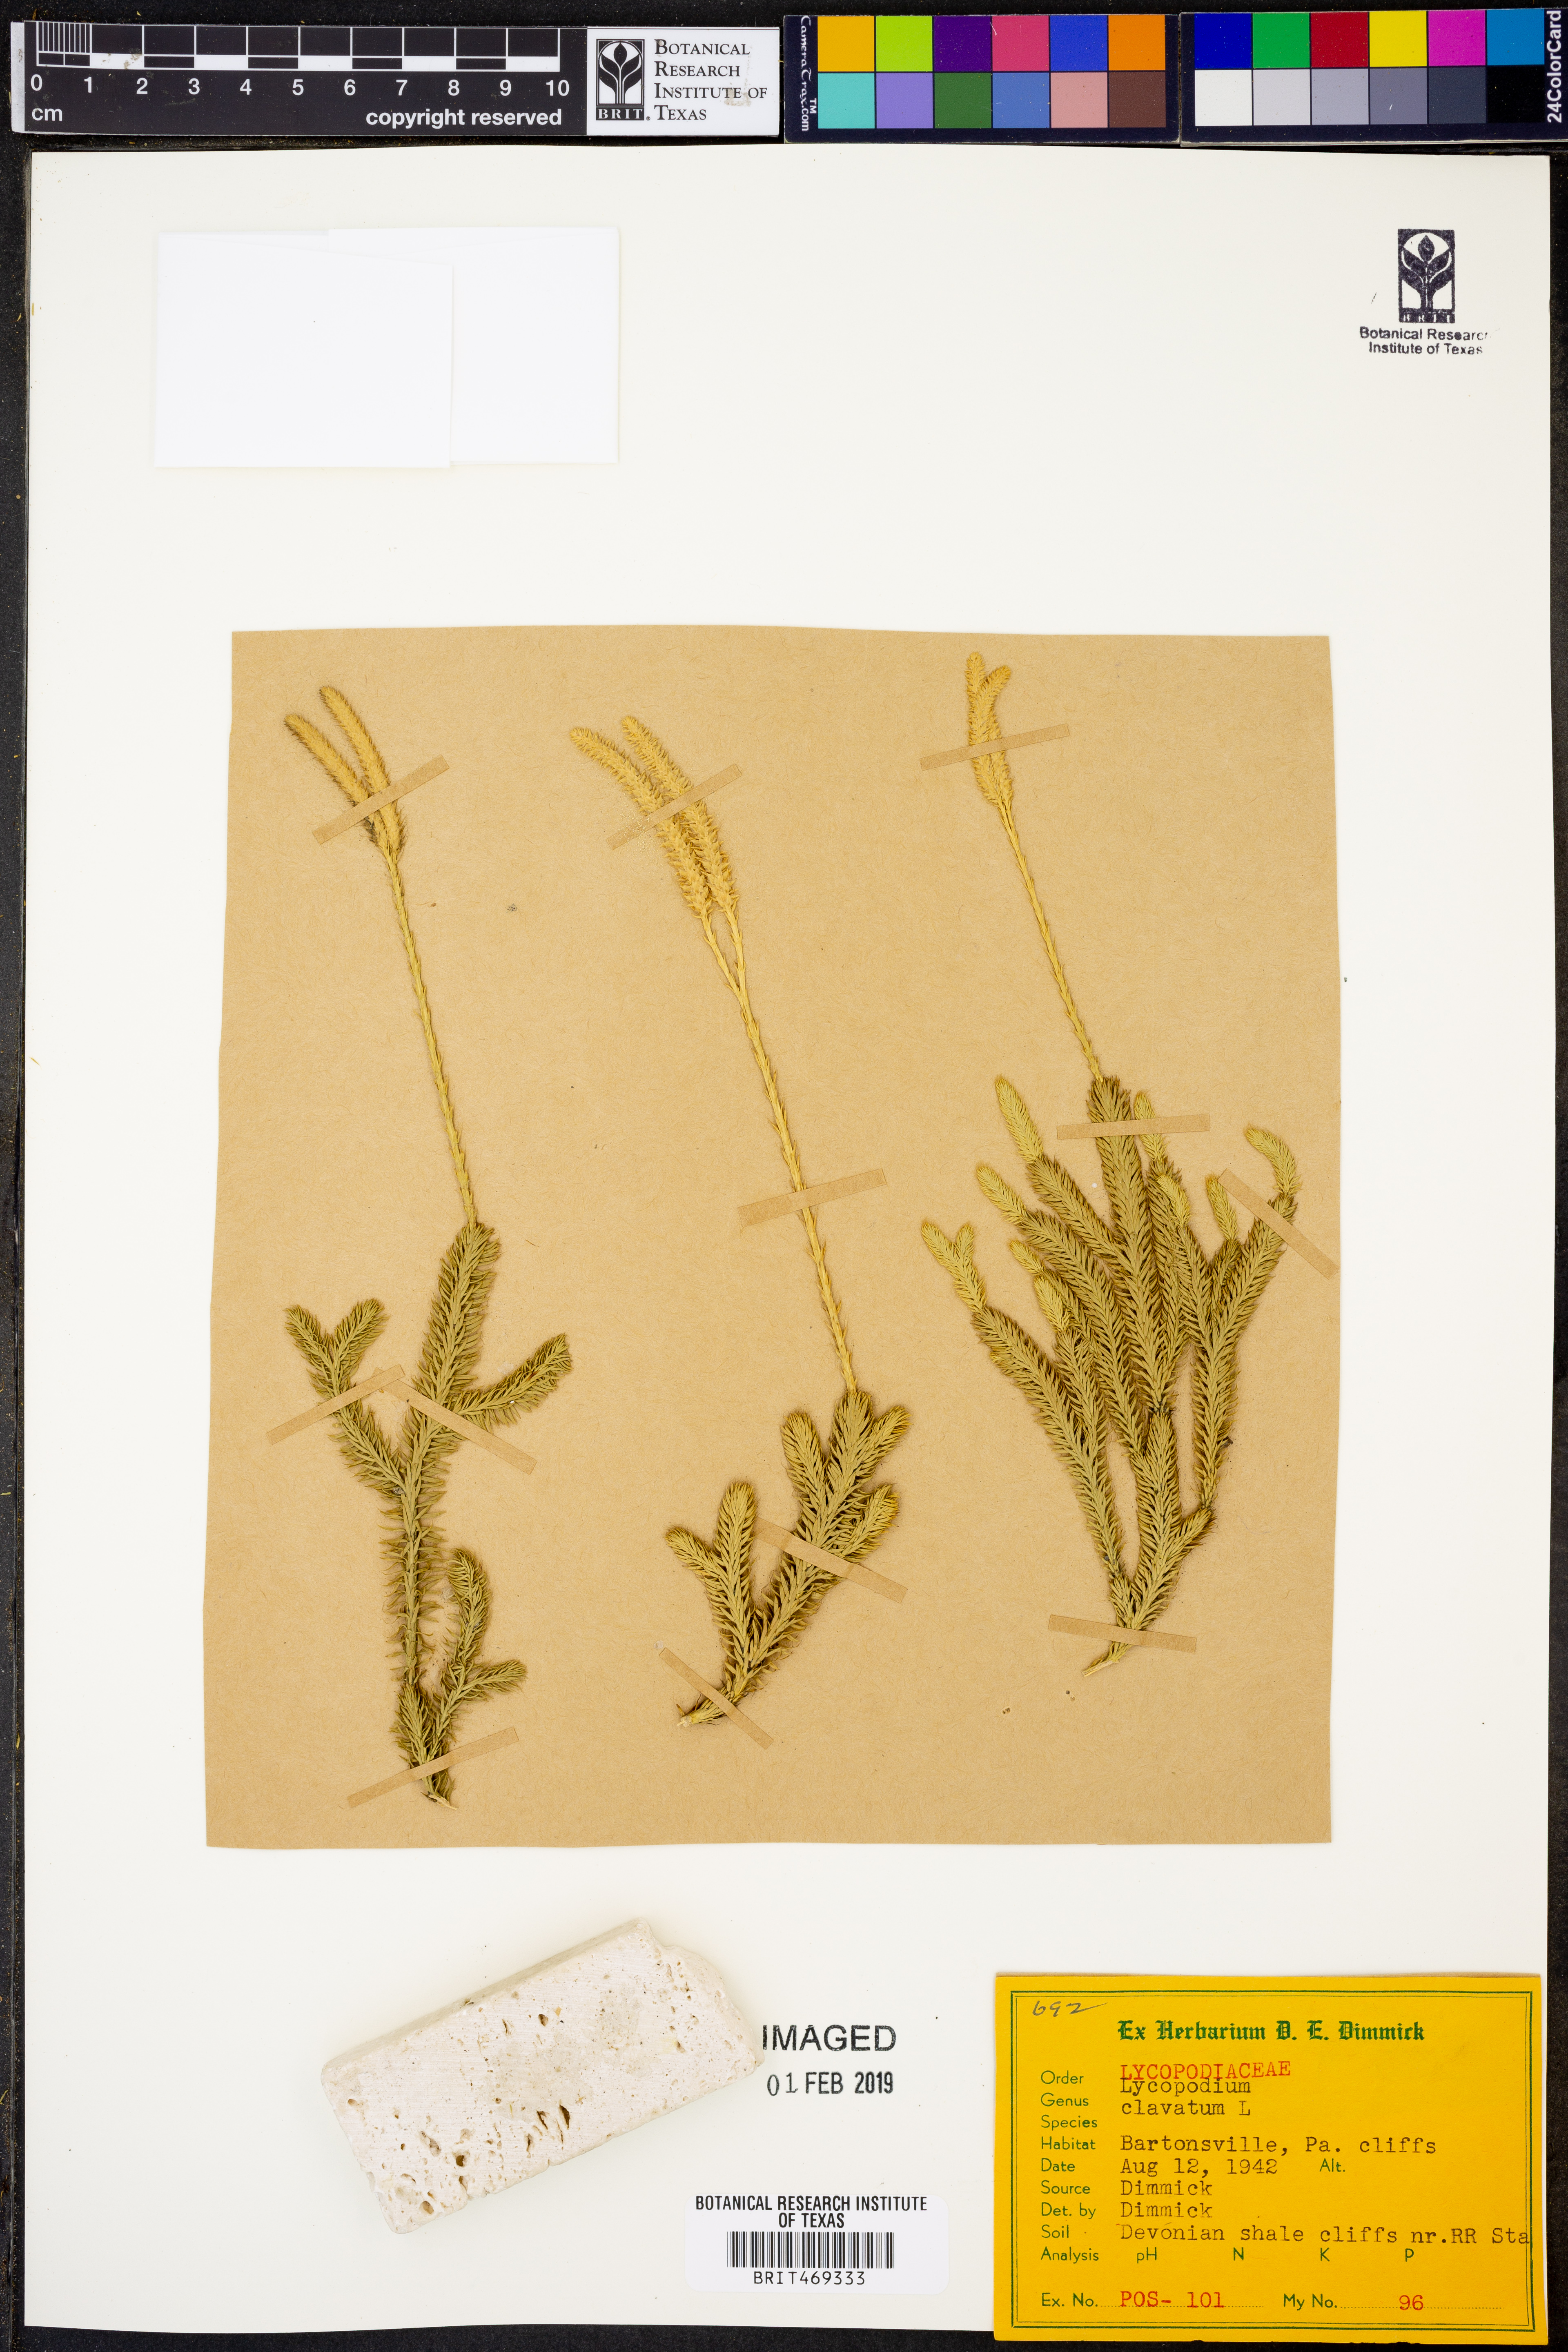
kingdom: Plantae
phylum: Tracheophyta
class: Lycopodiopsida
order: Lycopodiales
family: Lycopodiaceae
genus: Lycopodium
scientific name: Lycopodium clavatum
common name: Stag's-horn clubmoss
